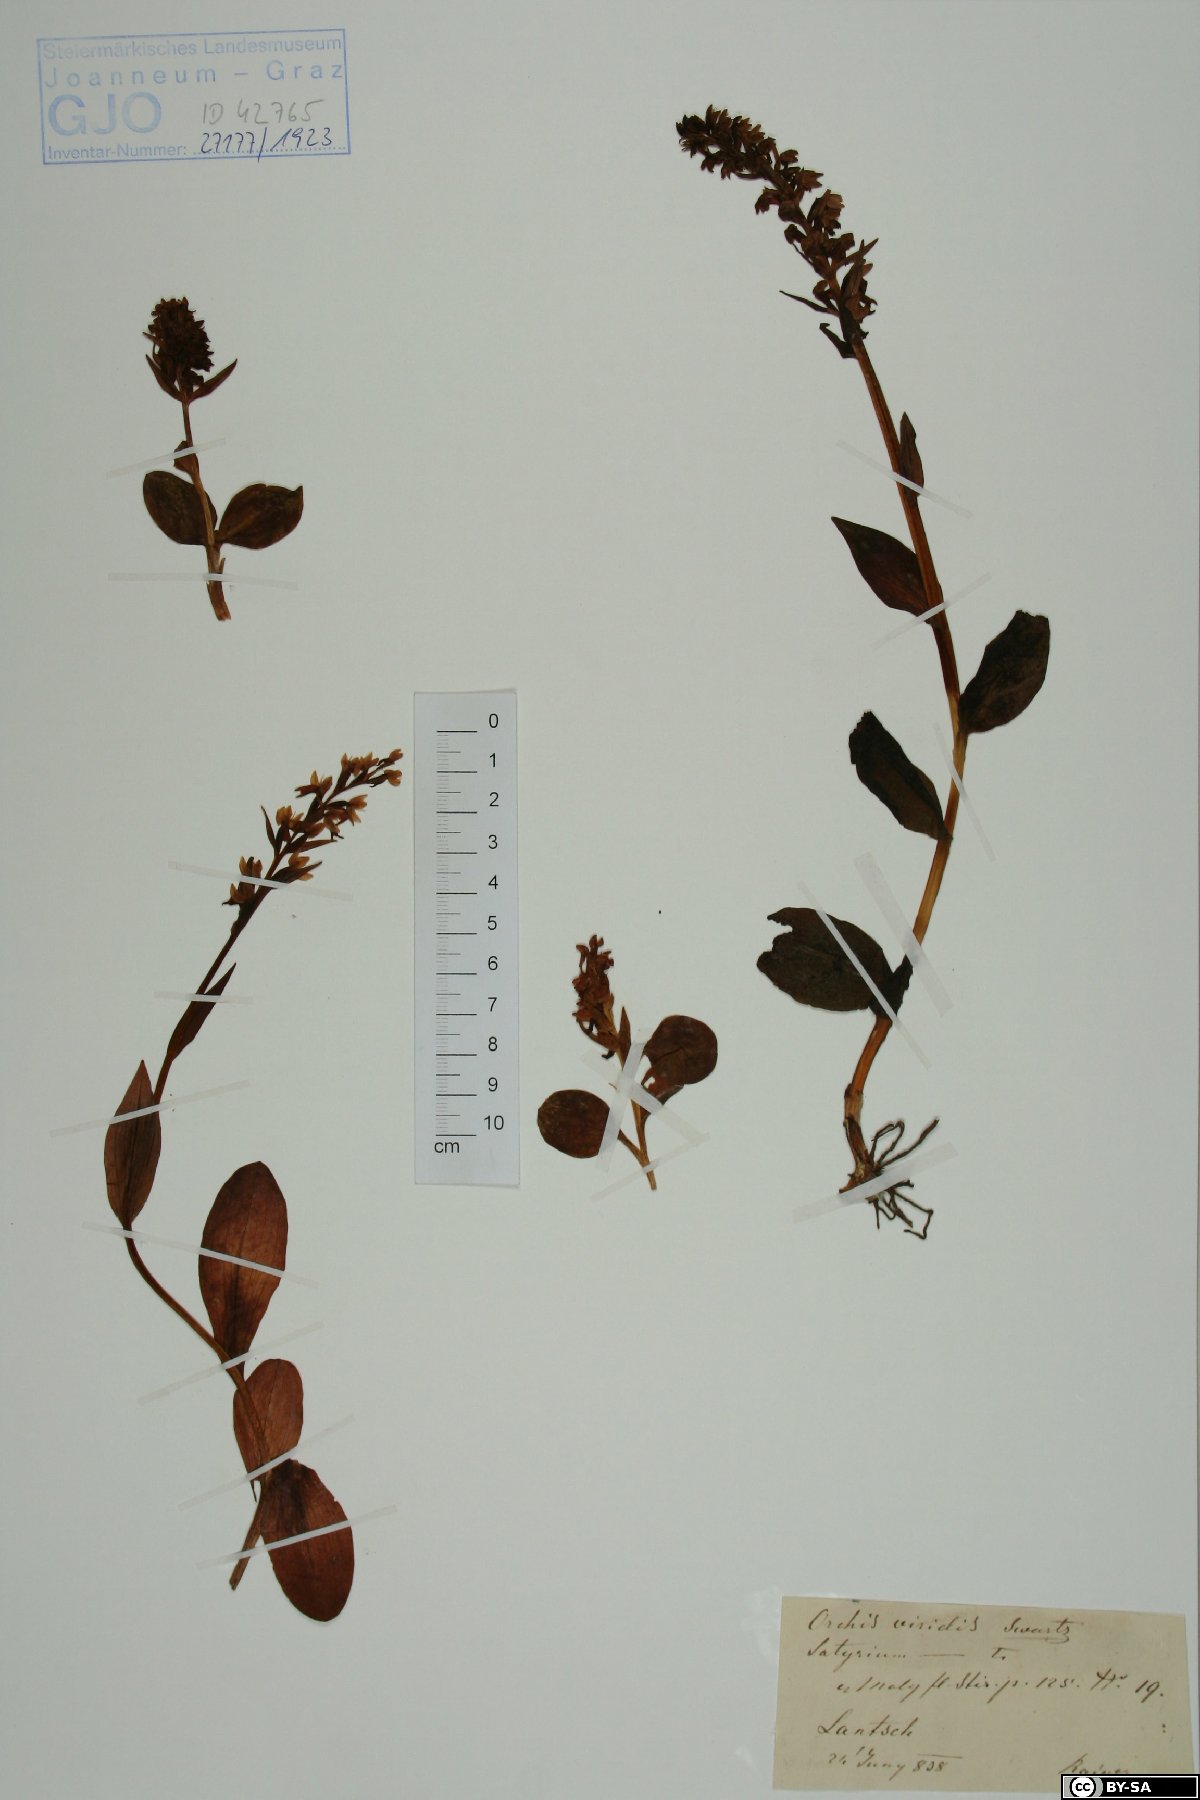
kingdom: Plantae
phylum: Tracheophyta
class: Liliopsida
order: Asparagales
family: Orchidaceae
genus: Dactylorhiza
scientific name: Dactylorhiza viridis
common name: Longbract frog orchid
